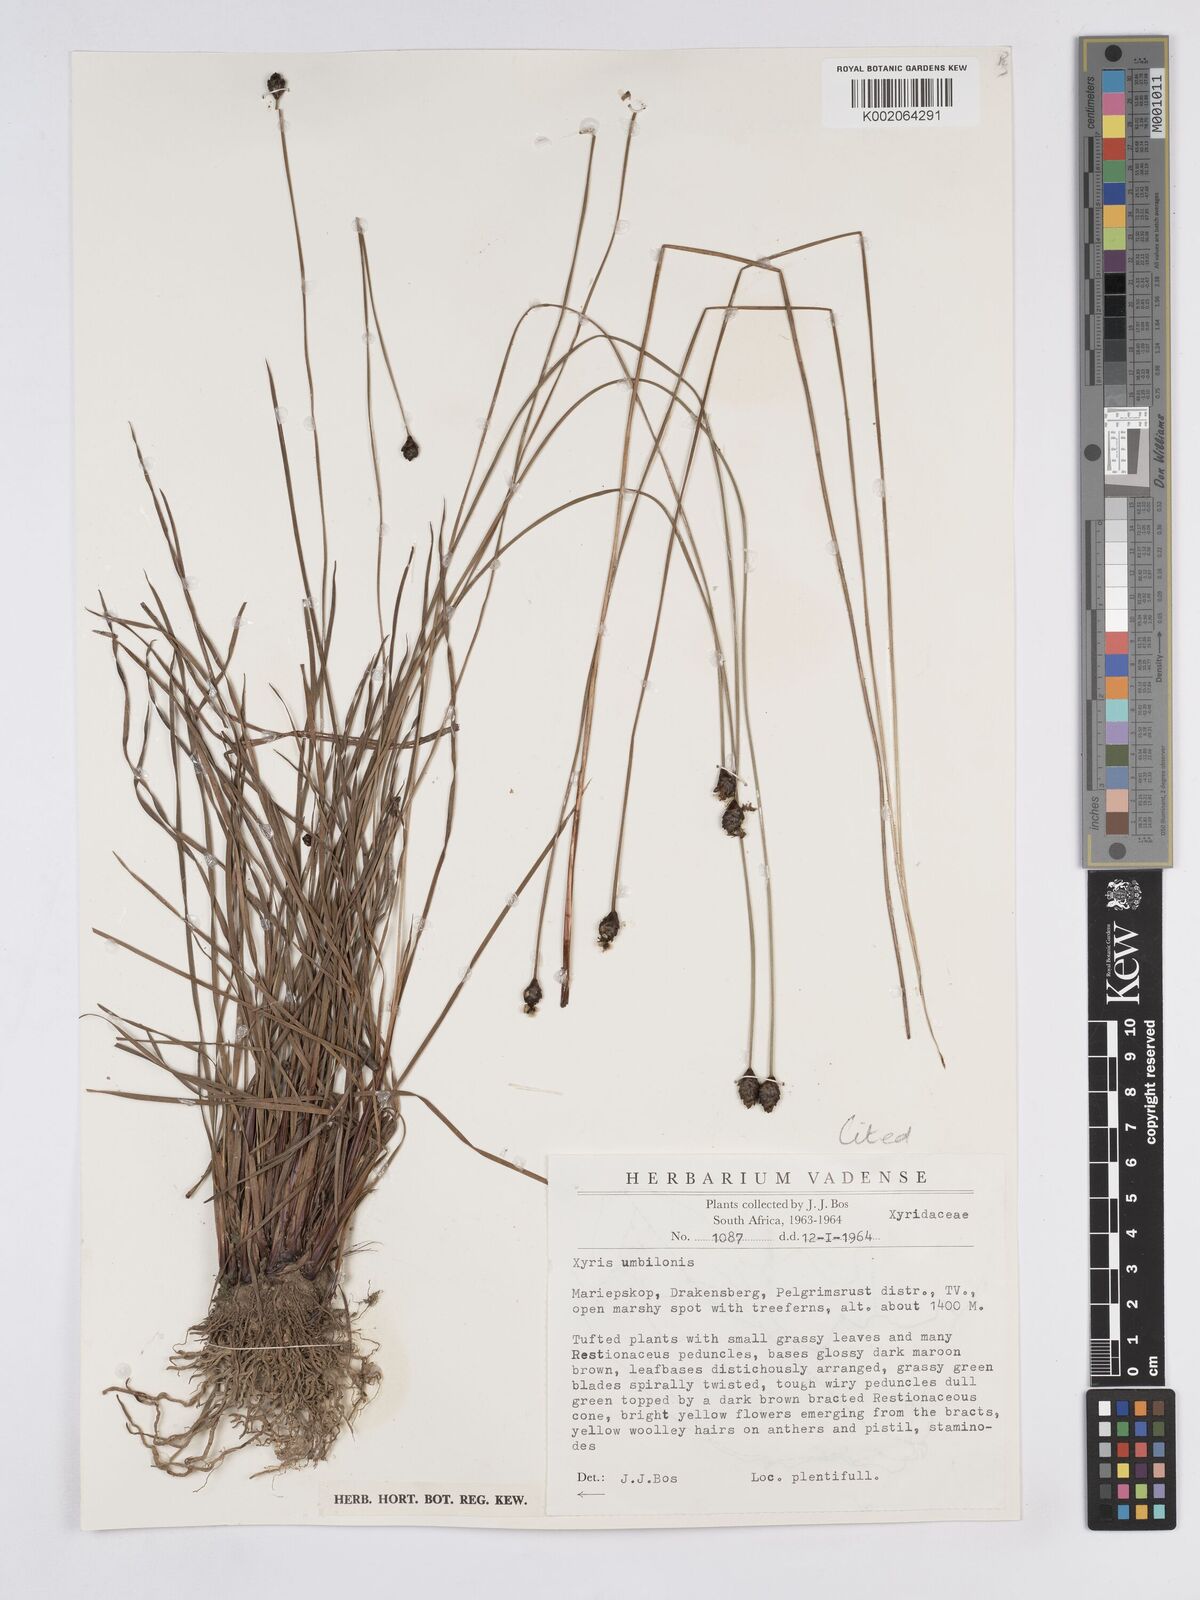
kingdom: Plantae
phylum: Tracheophyta
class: Liliopsida
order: Poales
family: Xyridaceae
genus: Xyris
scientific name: Xyris congensis
